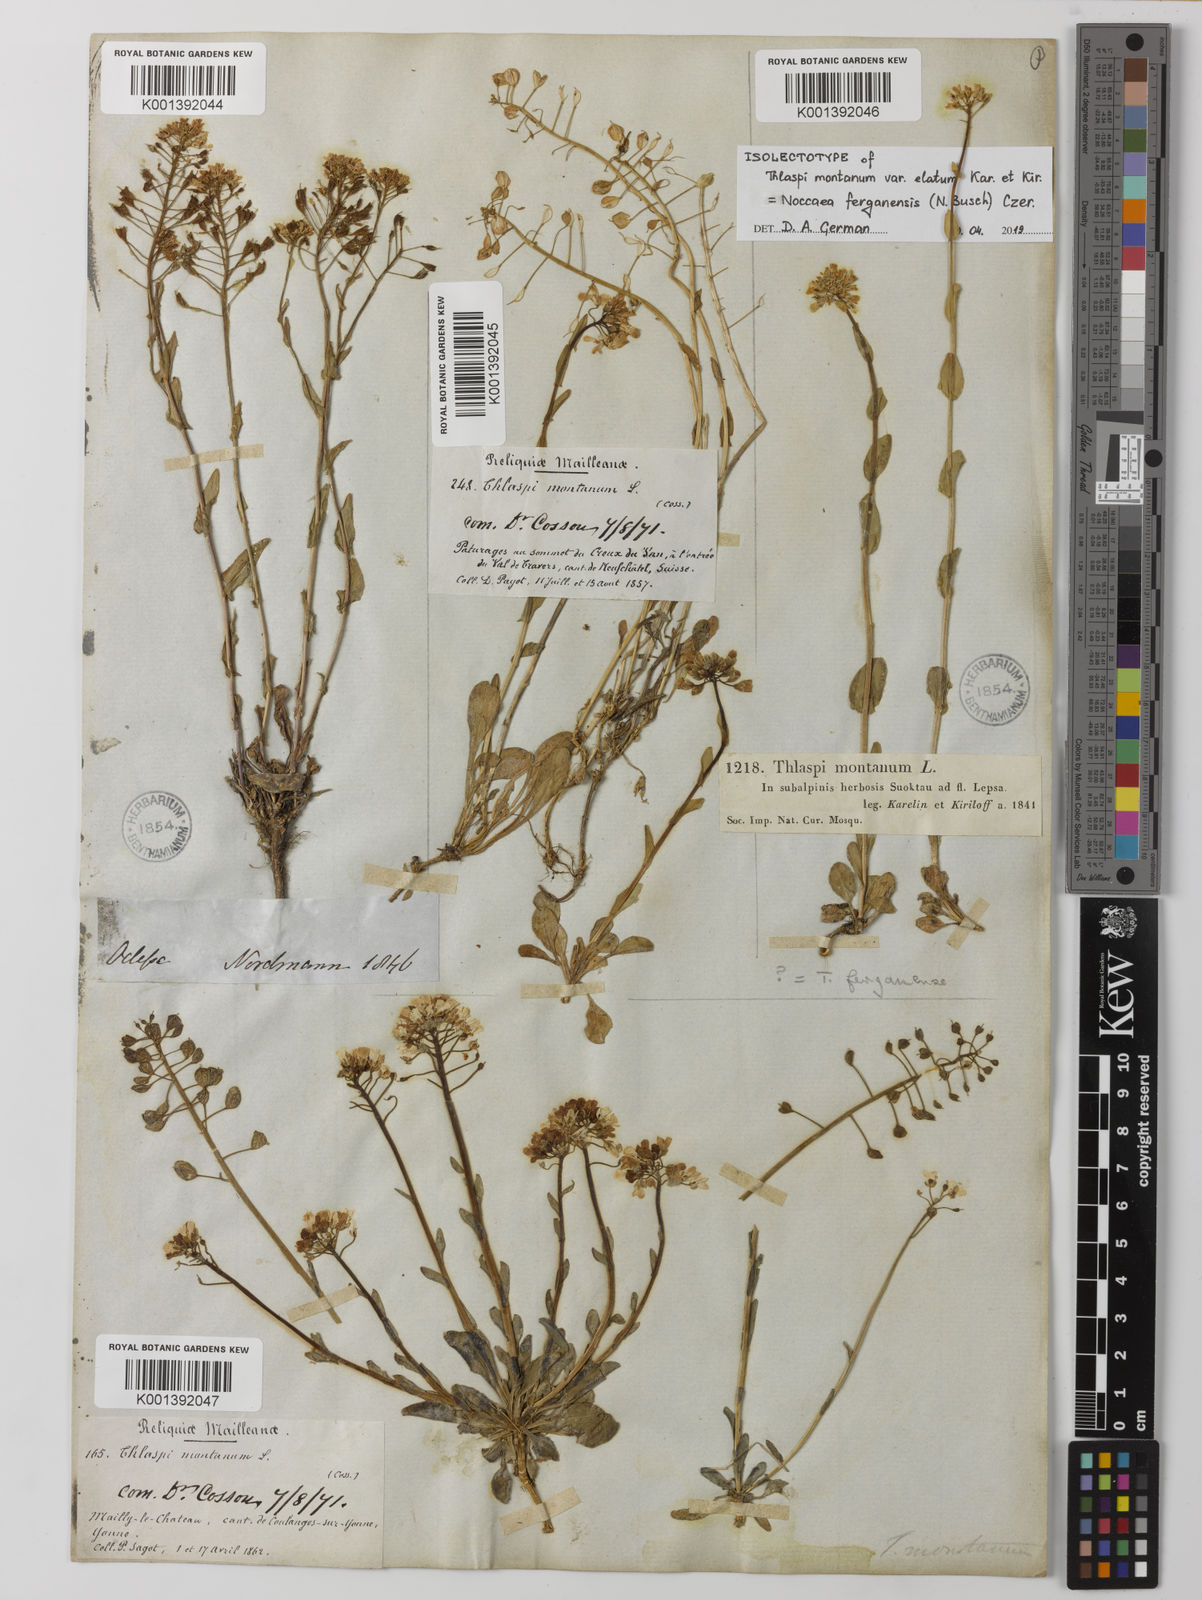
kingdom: Plantae
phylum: Tracheophyta
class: Magnoliopsida
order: Brassicales
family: Brassicaceae
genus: Noccaea
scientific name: Noccaea montana
